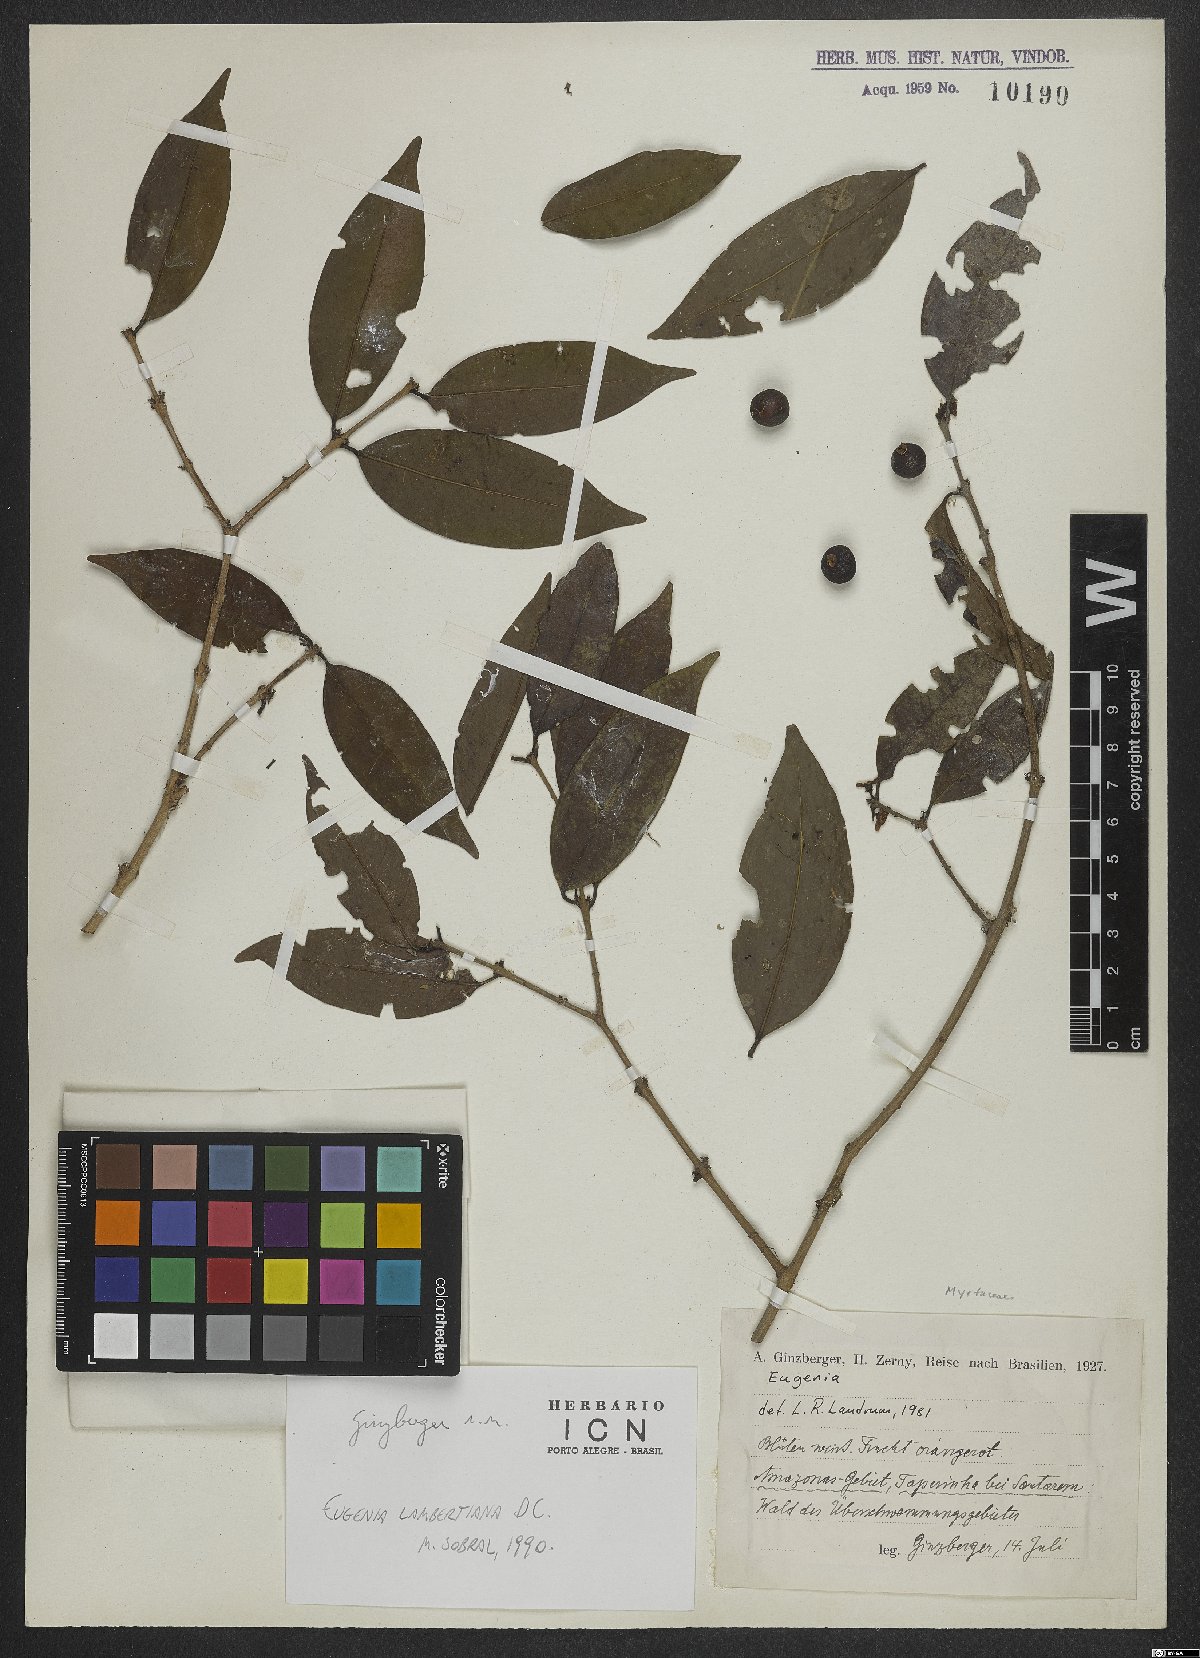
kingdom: Plantae
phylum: Tracheophyta
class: Magnoliopsida
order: Myrtales
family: Myrtaceae
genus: Eugenia
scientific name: Eugenia lambertiana
